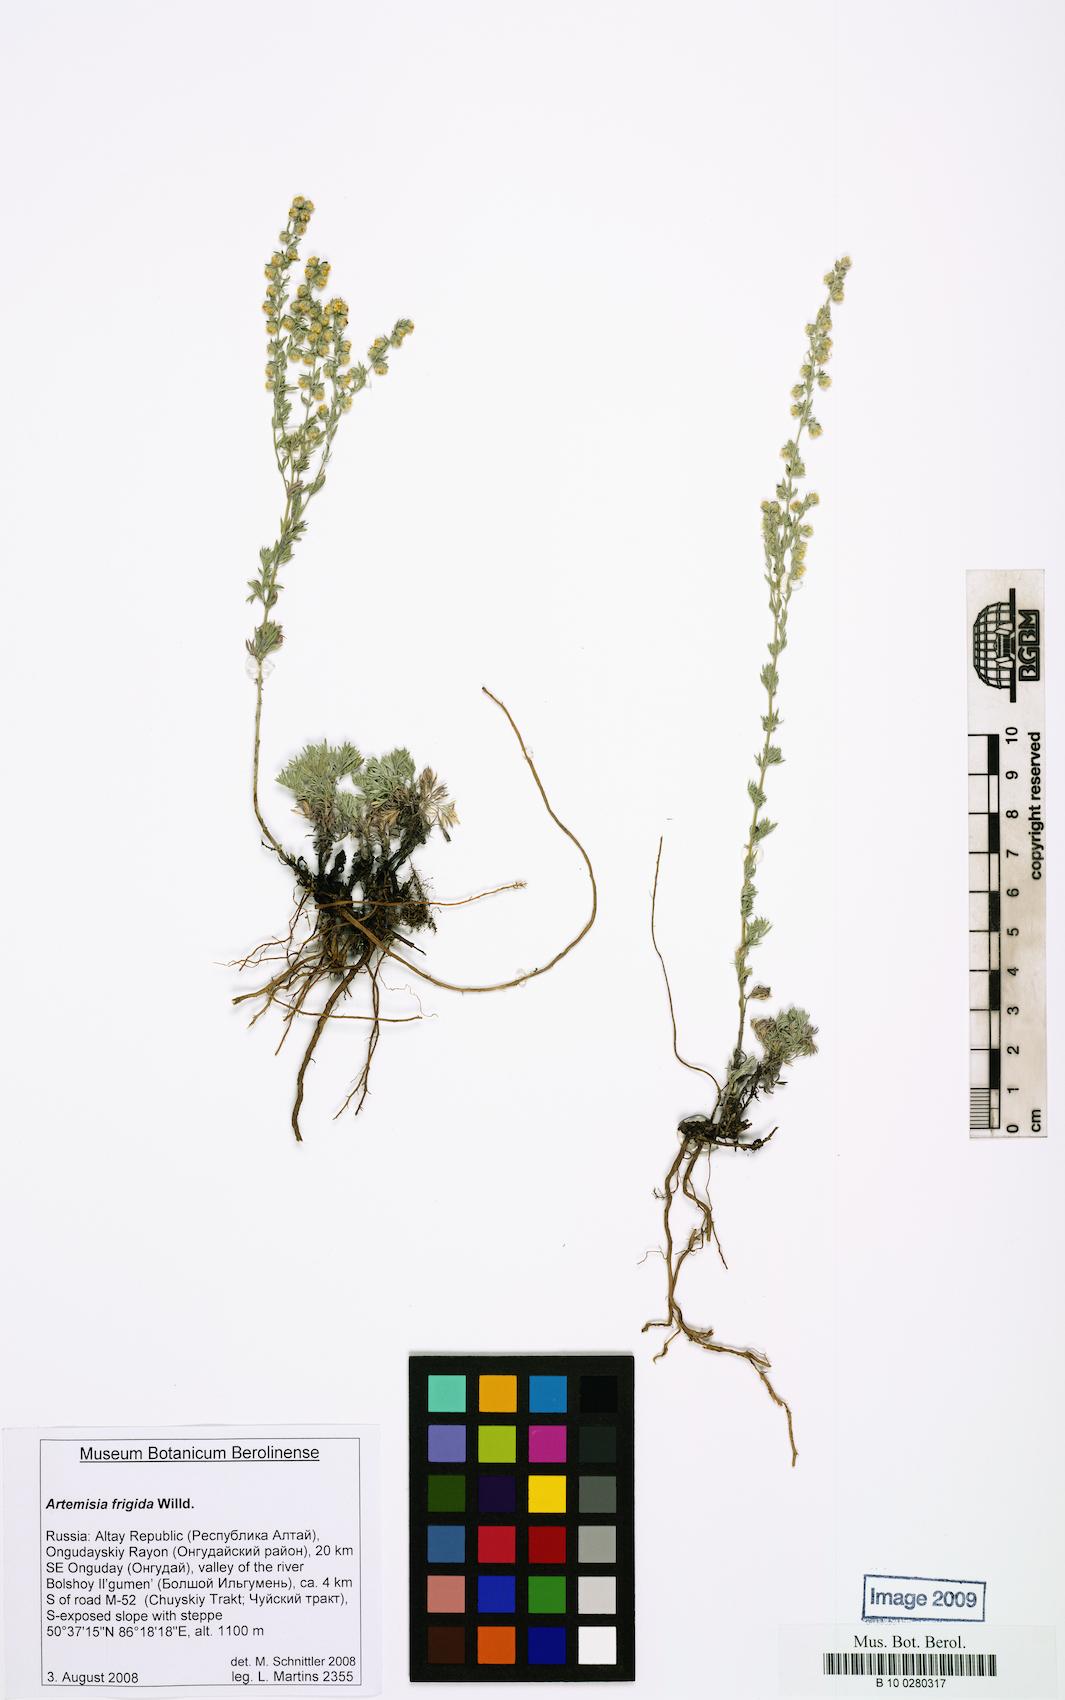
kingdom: Plantae
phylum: Tracheophyta
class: Magnoliopsida
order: Asterales
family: Asteraceae
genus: Artemisia
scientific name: Artemisia frigida
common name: Prairie sagewort
